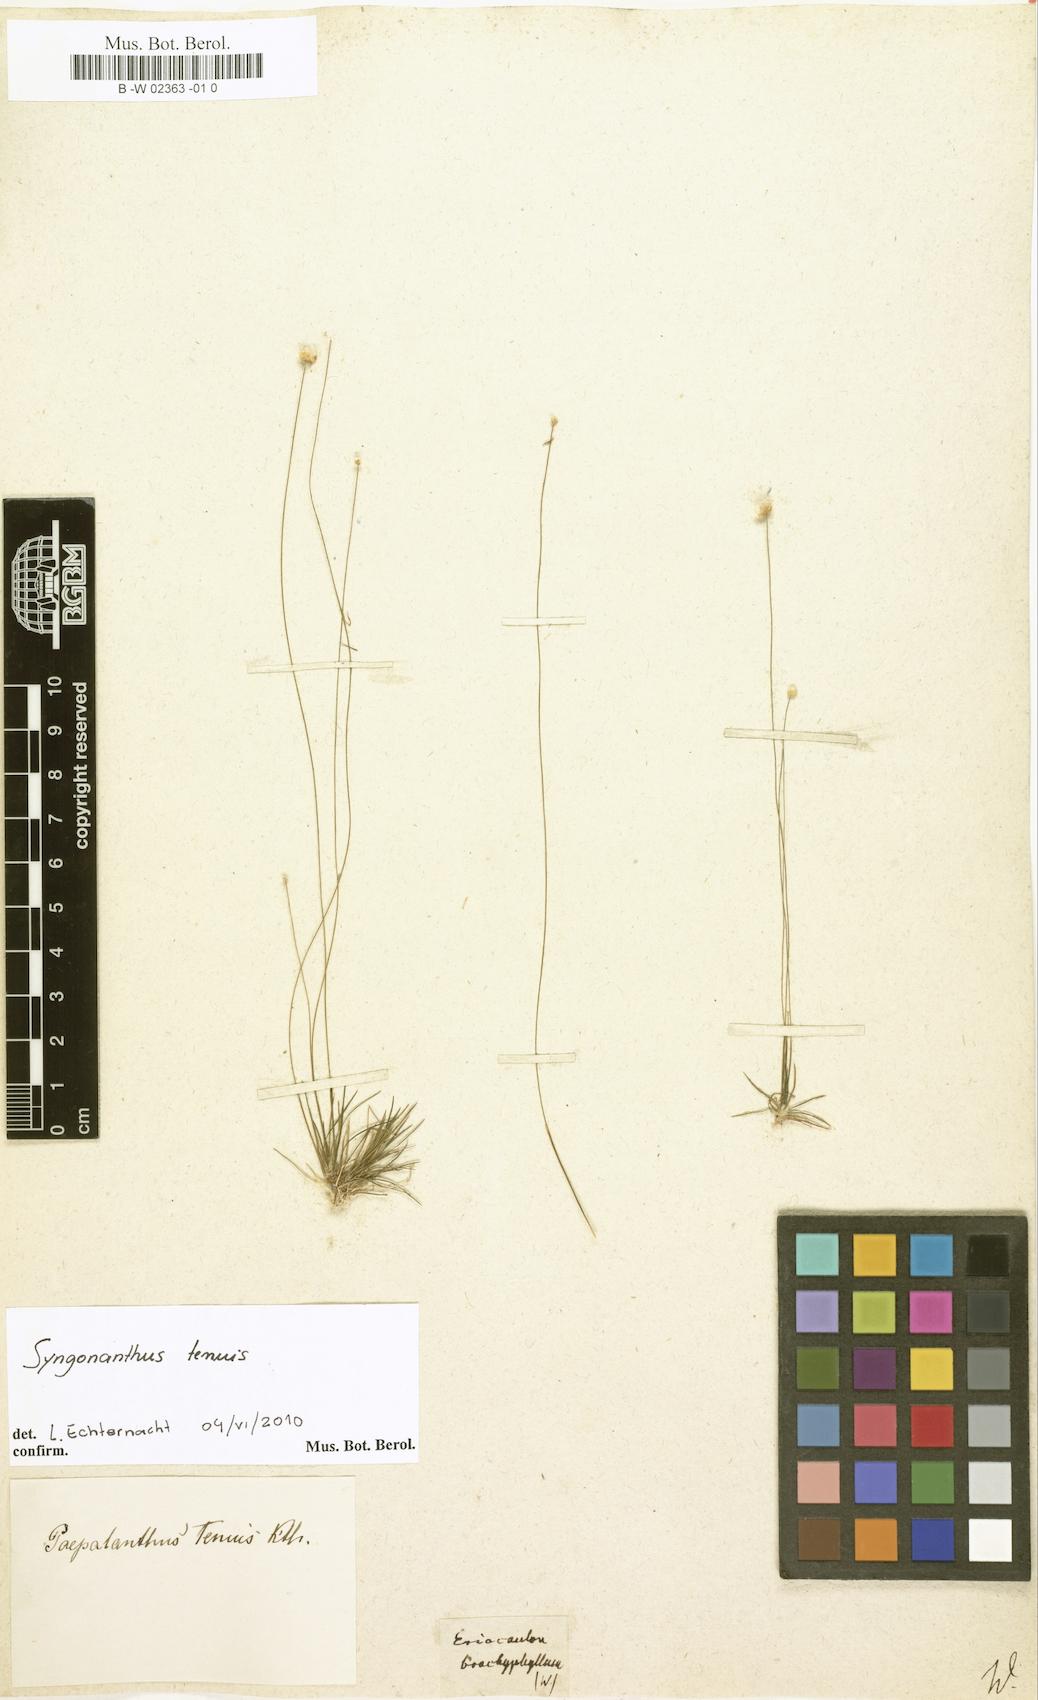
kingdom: Plantae
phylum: Tracheophyta
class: Liliopsida
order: Poales
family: Eriocaulaceae
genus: Syngonanthus
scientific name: Syngonanthus tenuis
